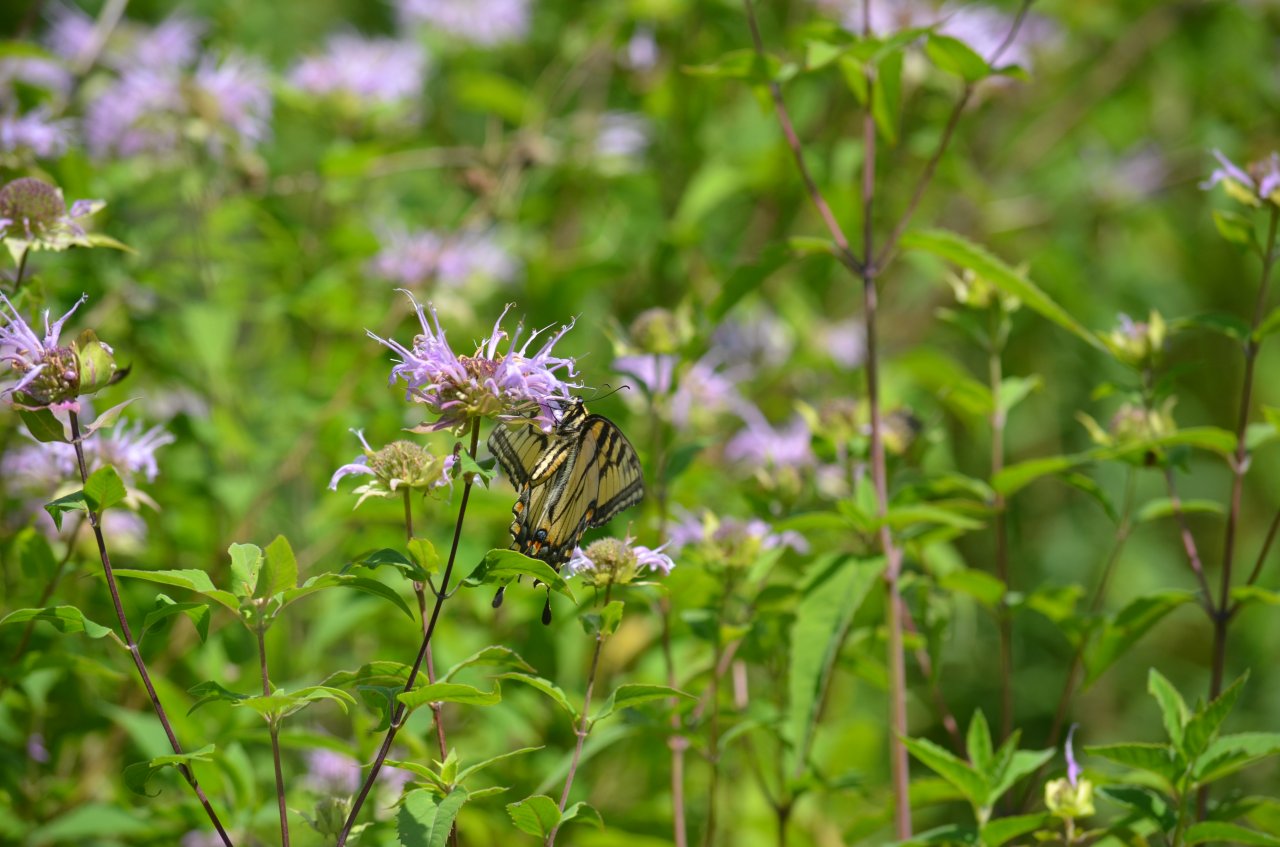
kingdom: Animalia
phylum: Arthropoda
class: Insecta
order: Lepidoptera
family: Papilionidae
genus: Pterourus
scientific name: Pterourus glaucus
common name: Eastern Tiger Swallowtail
